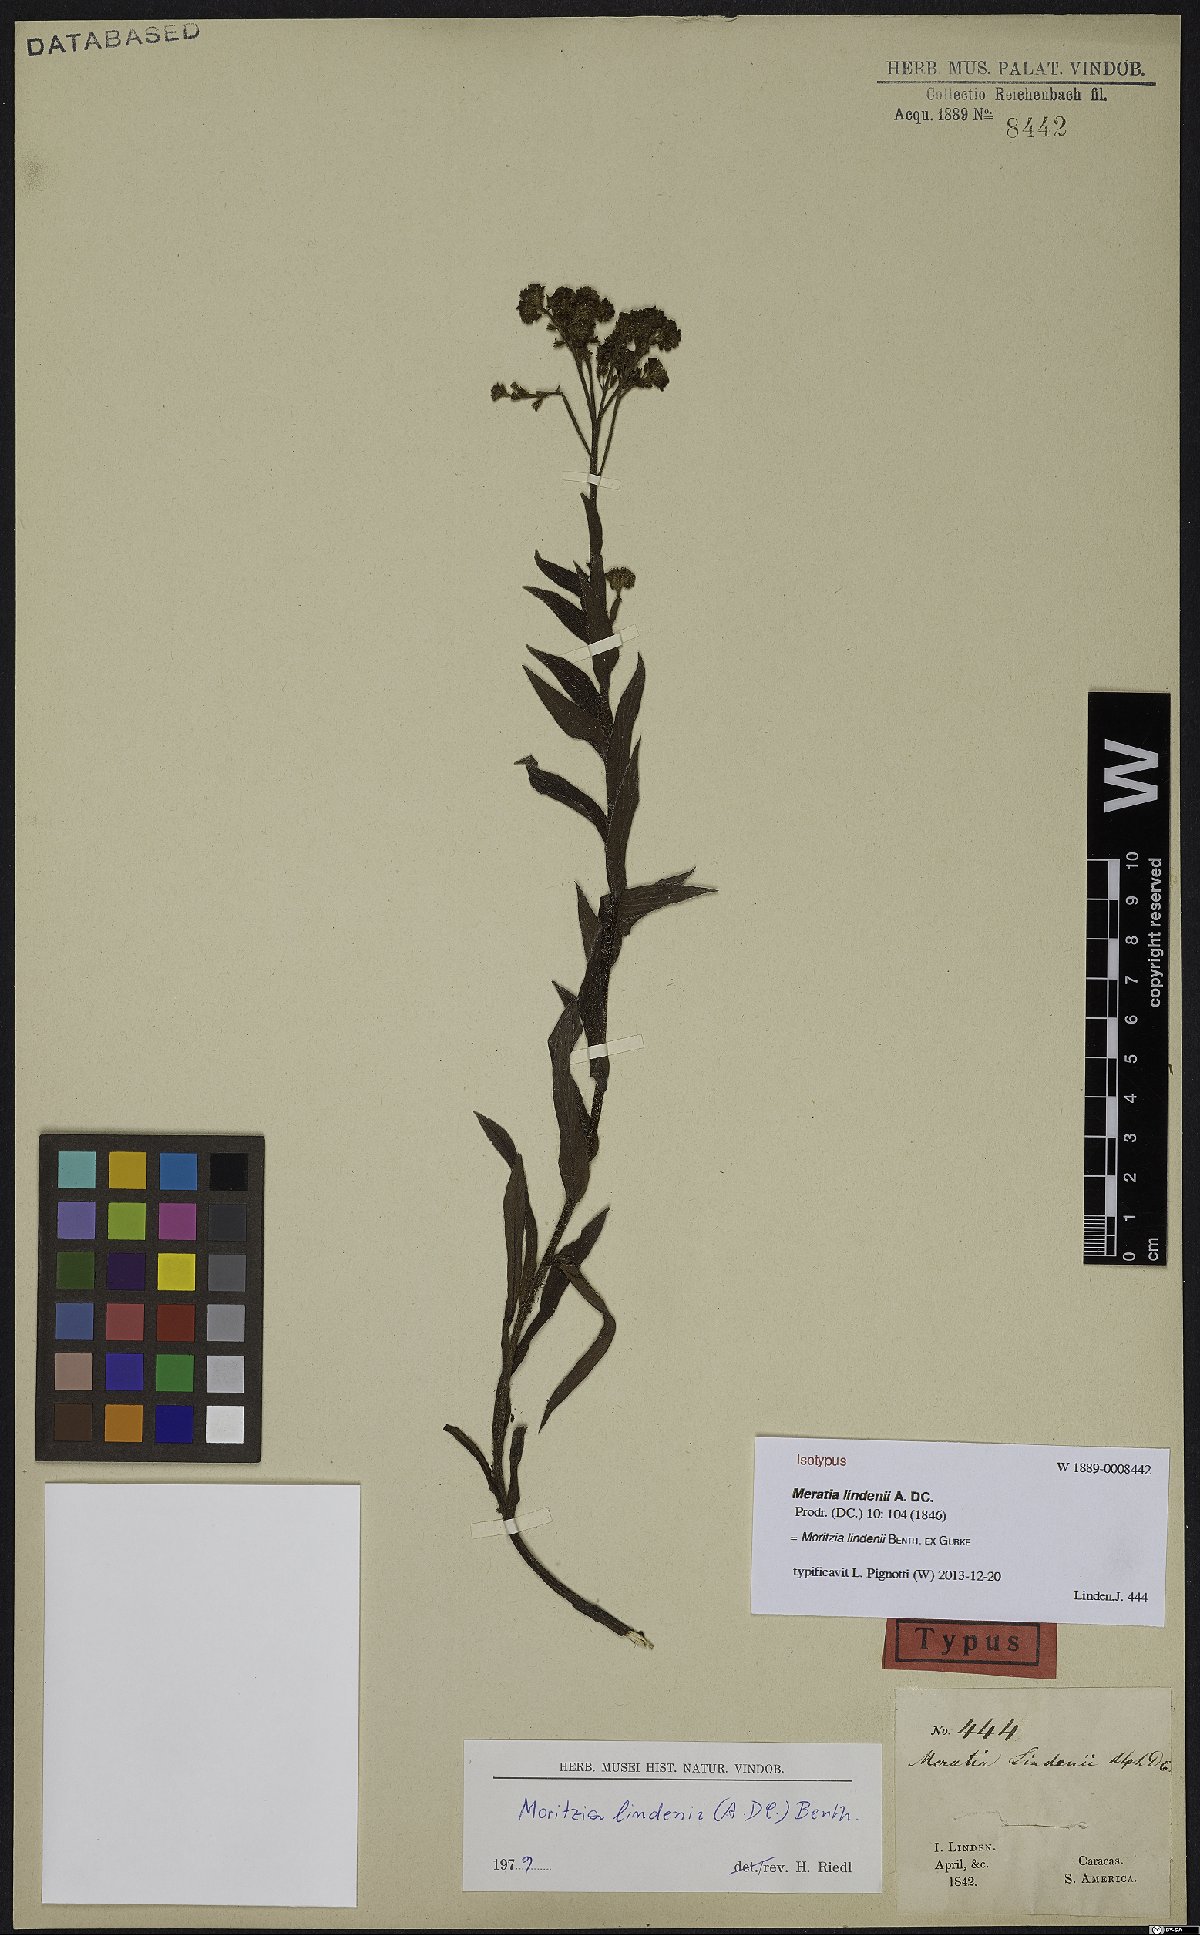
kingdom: Plantae
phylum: Tracheophyta
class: Magnoliopsida
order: Boraginales
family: Boraginaceae
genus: Moritzia
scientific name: Moritzia lindenii
